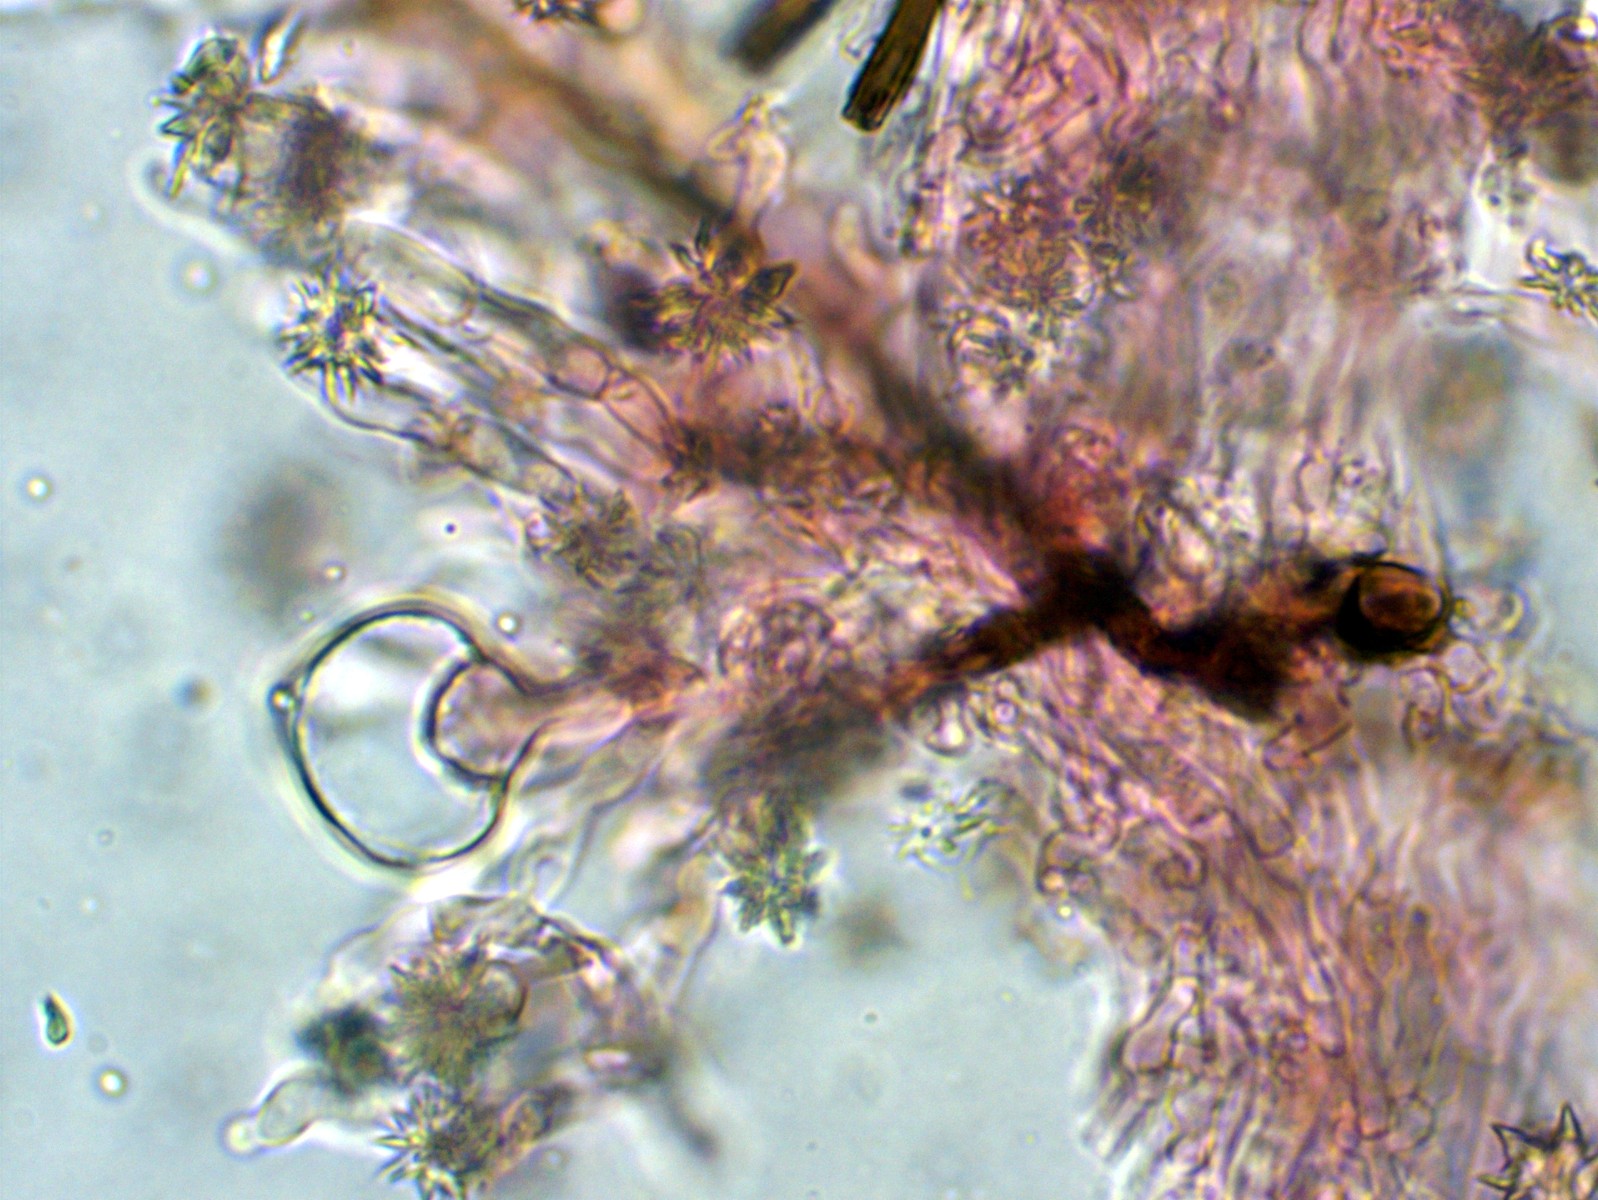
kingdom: Fungi
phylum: Basidiomycota
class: Agaricomycetes
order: Hymenochaetales
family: Rickenellaceae
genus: Resinicium
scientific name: Resinicium bicolor
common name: almindelig vokstand
